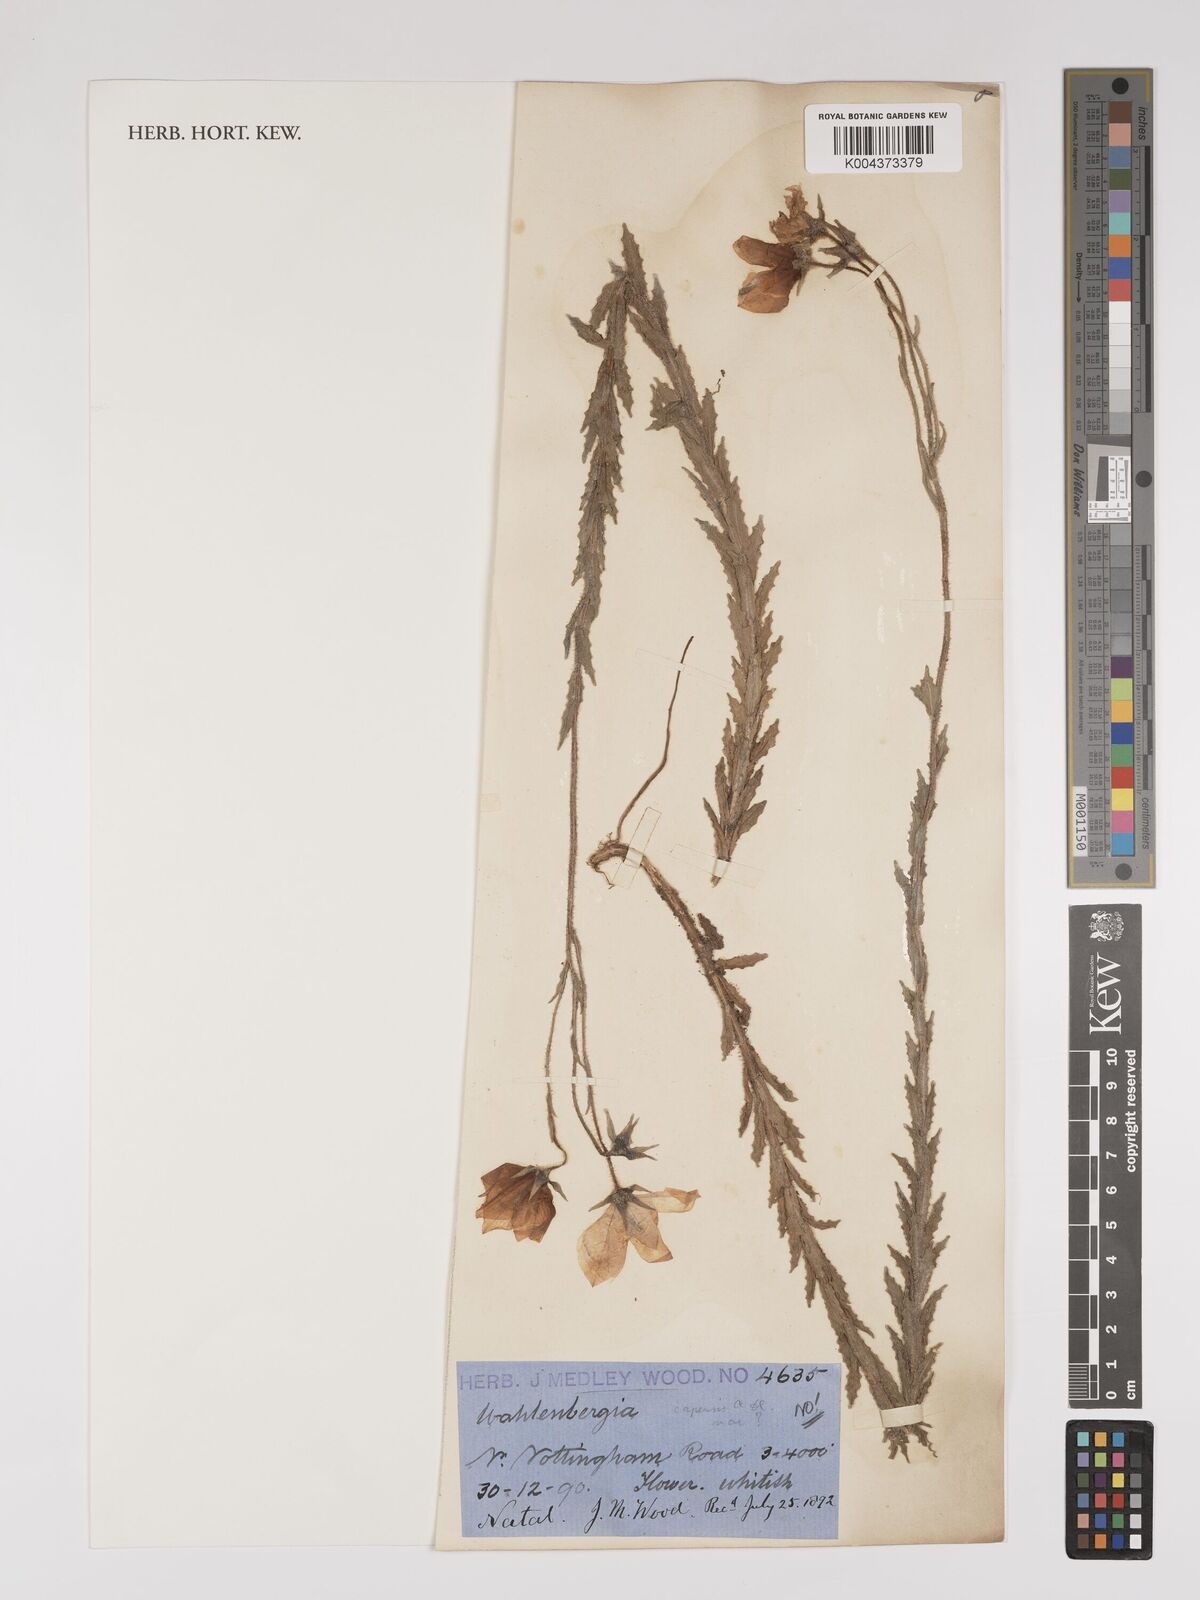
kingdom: Plantae
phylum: Tracheophyta
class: Magnoliopsida
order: Asterales
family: Campanulaceae
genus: Wahlenbergia
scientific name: Wahlenbergia undulata
